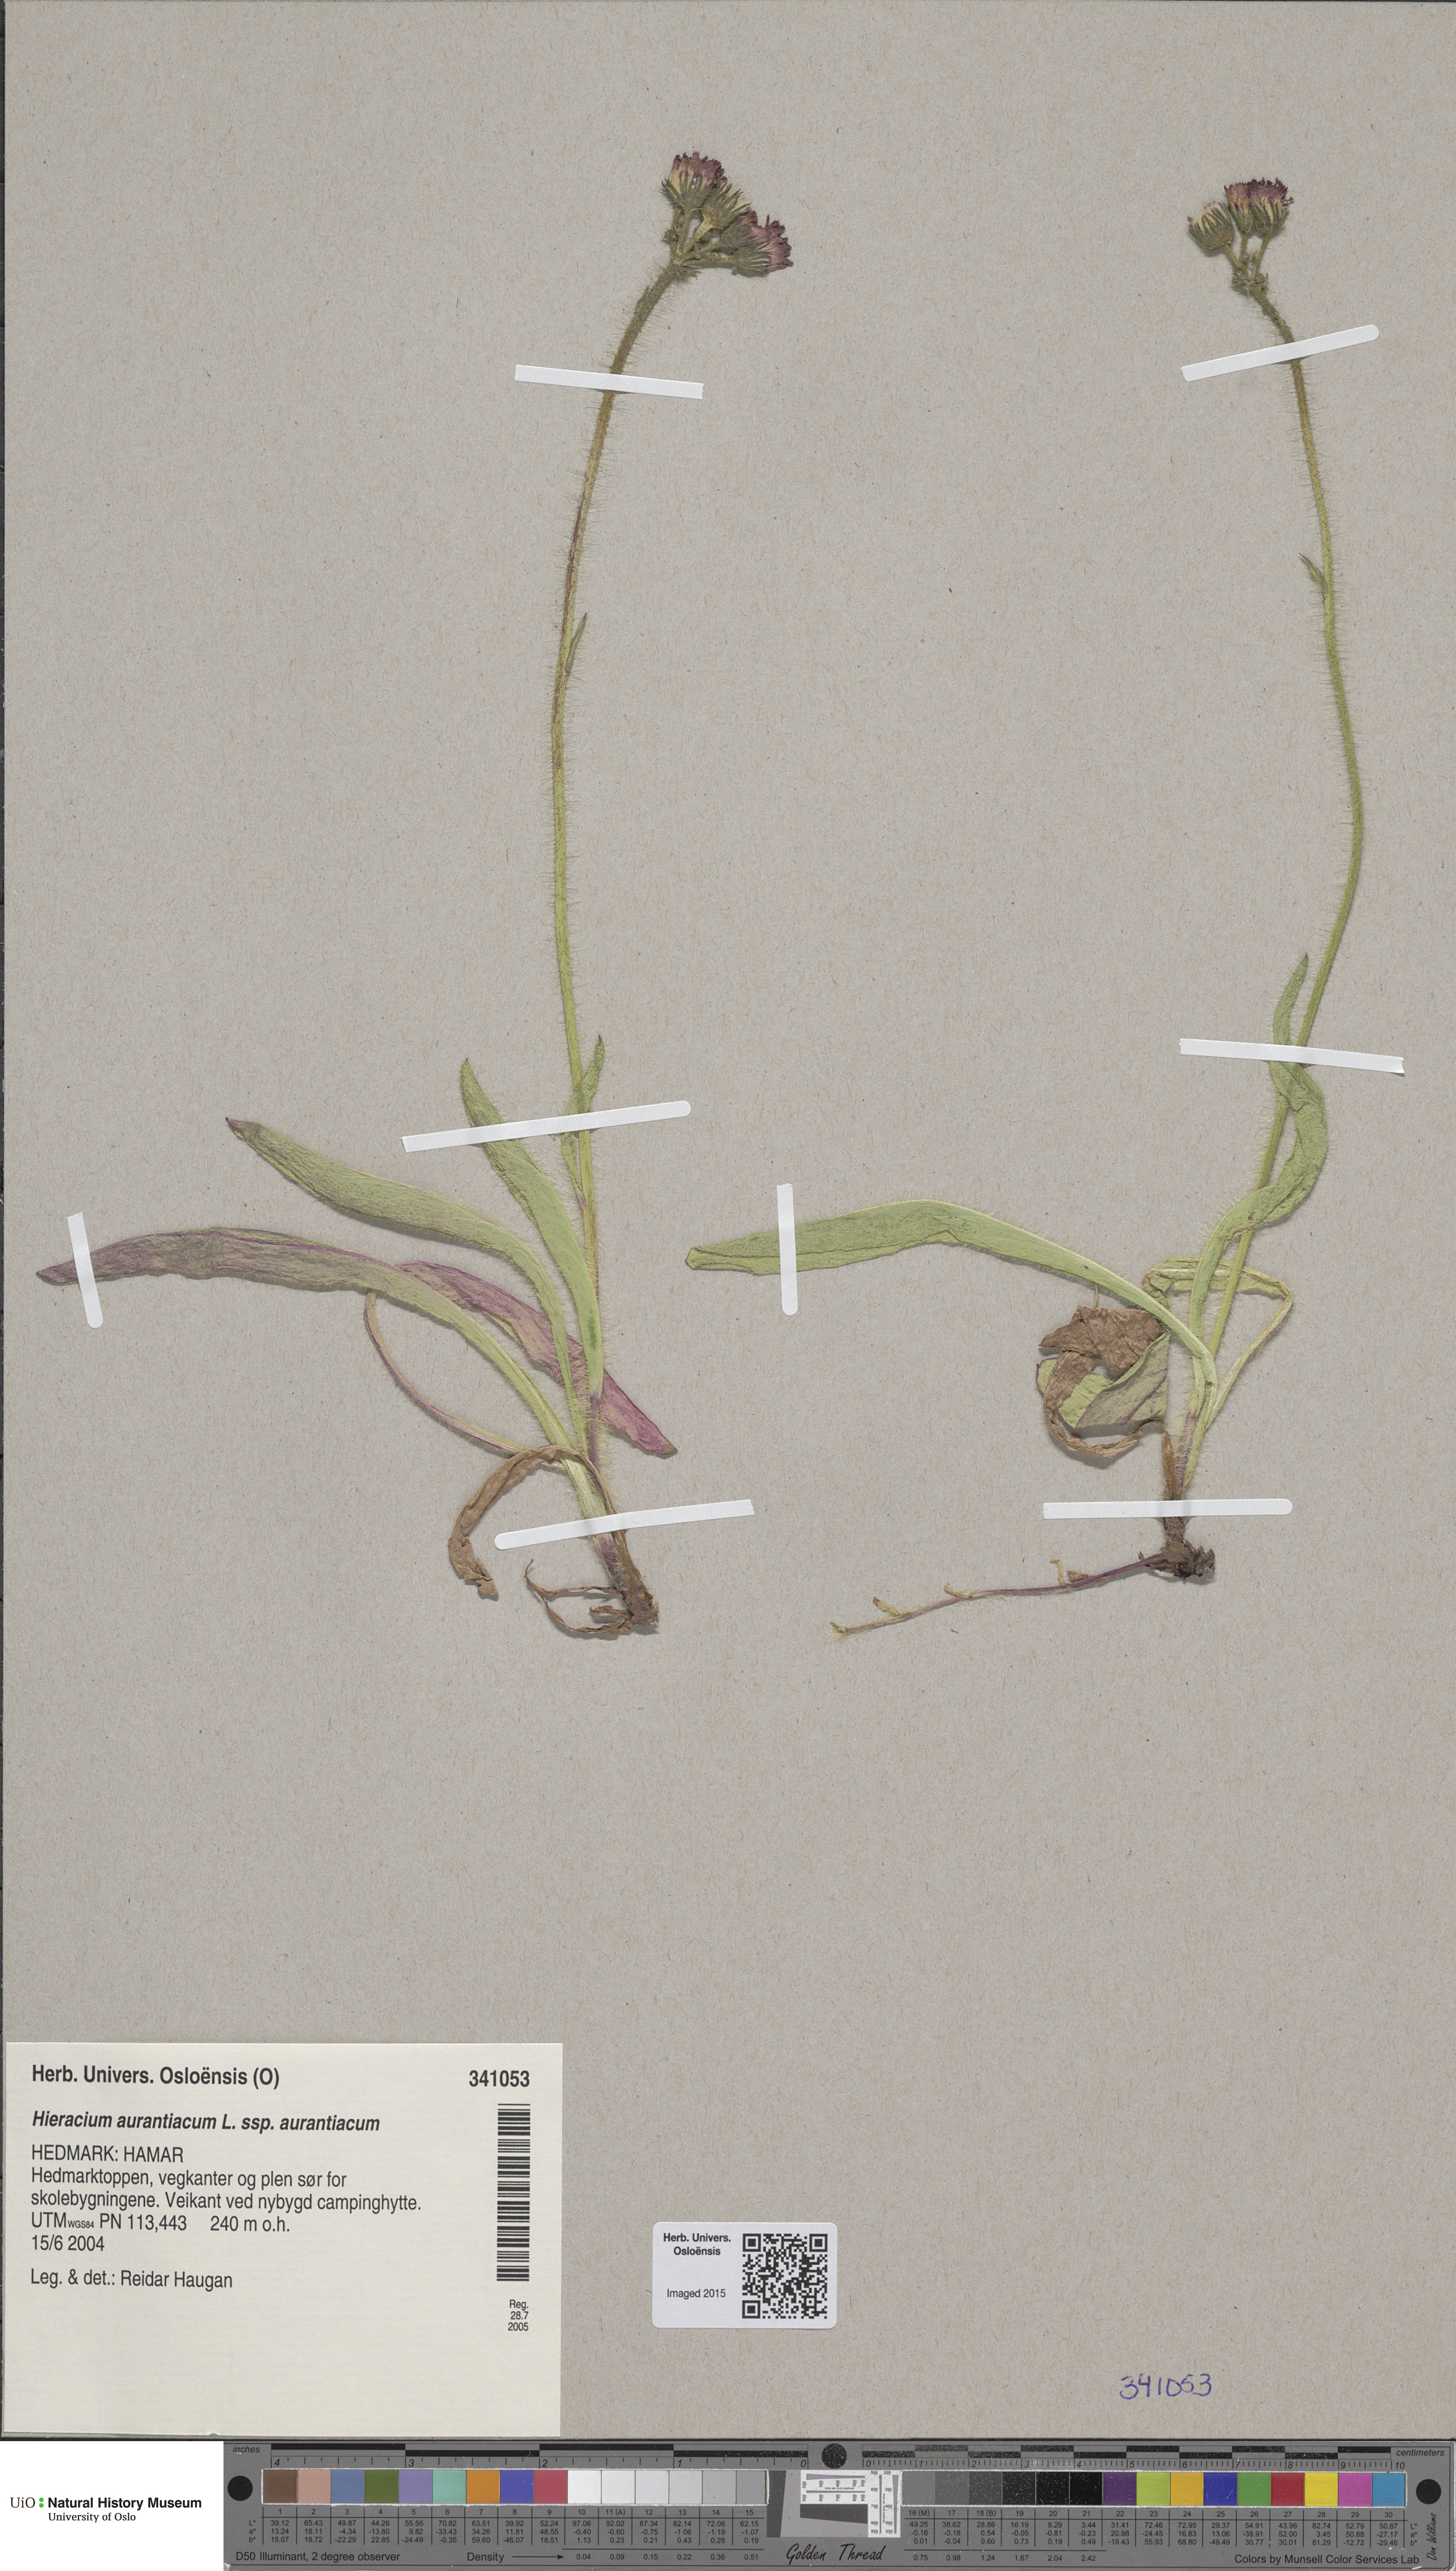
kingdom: Plantae
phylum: Tracheophyta
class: Magnoliopsida
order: Asterales
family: Asteraceae
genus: Pilosella
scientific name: Pilosella aurantiaca
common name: Fox-and-cubs
